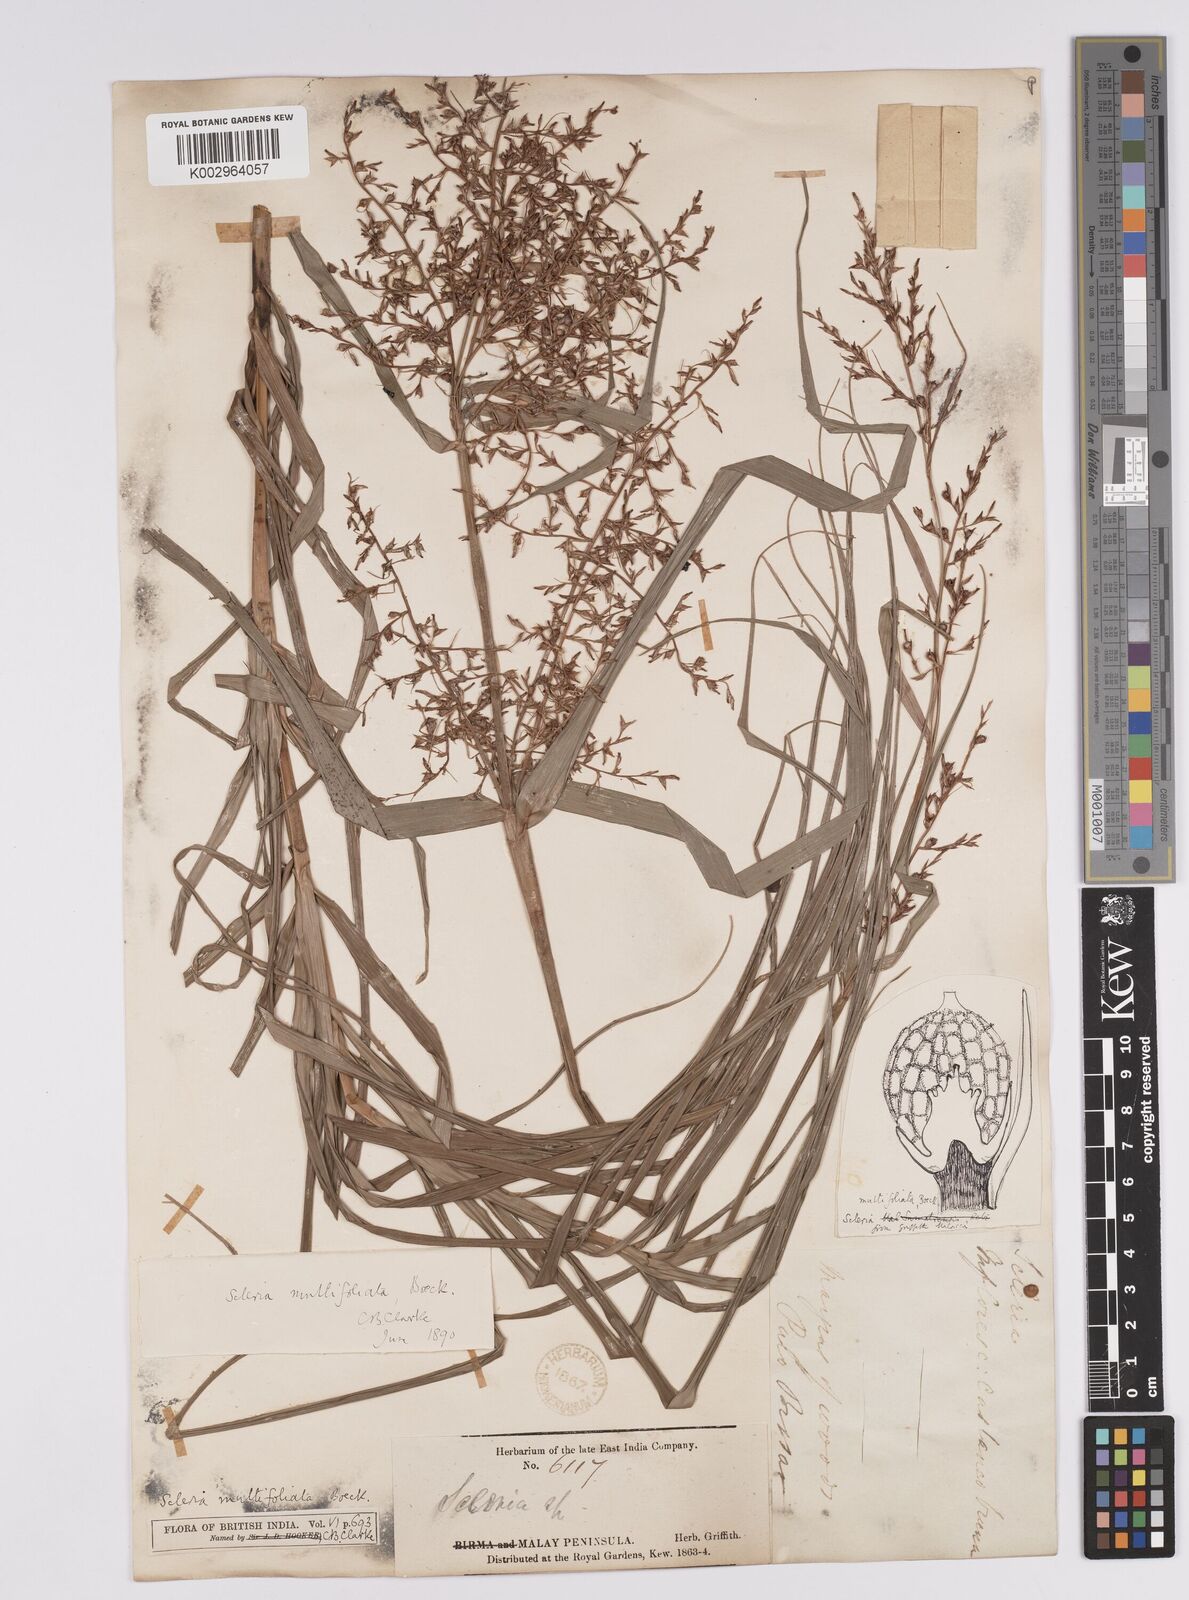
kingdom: Plantae
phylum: Tracheophyta
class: Liliopsida
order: Poales
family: Cyperaceae
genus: Scleria
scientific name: Scleria purpurascens
